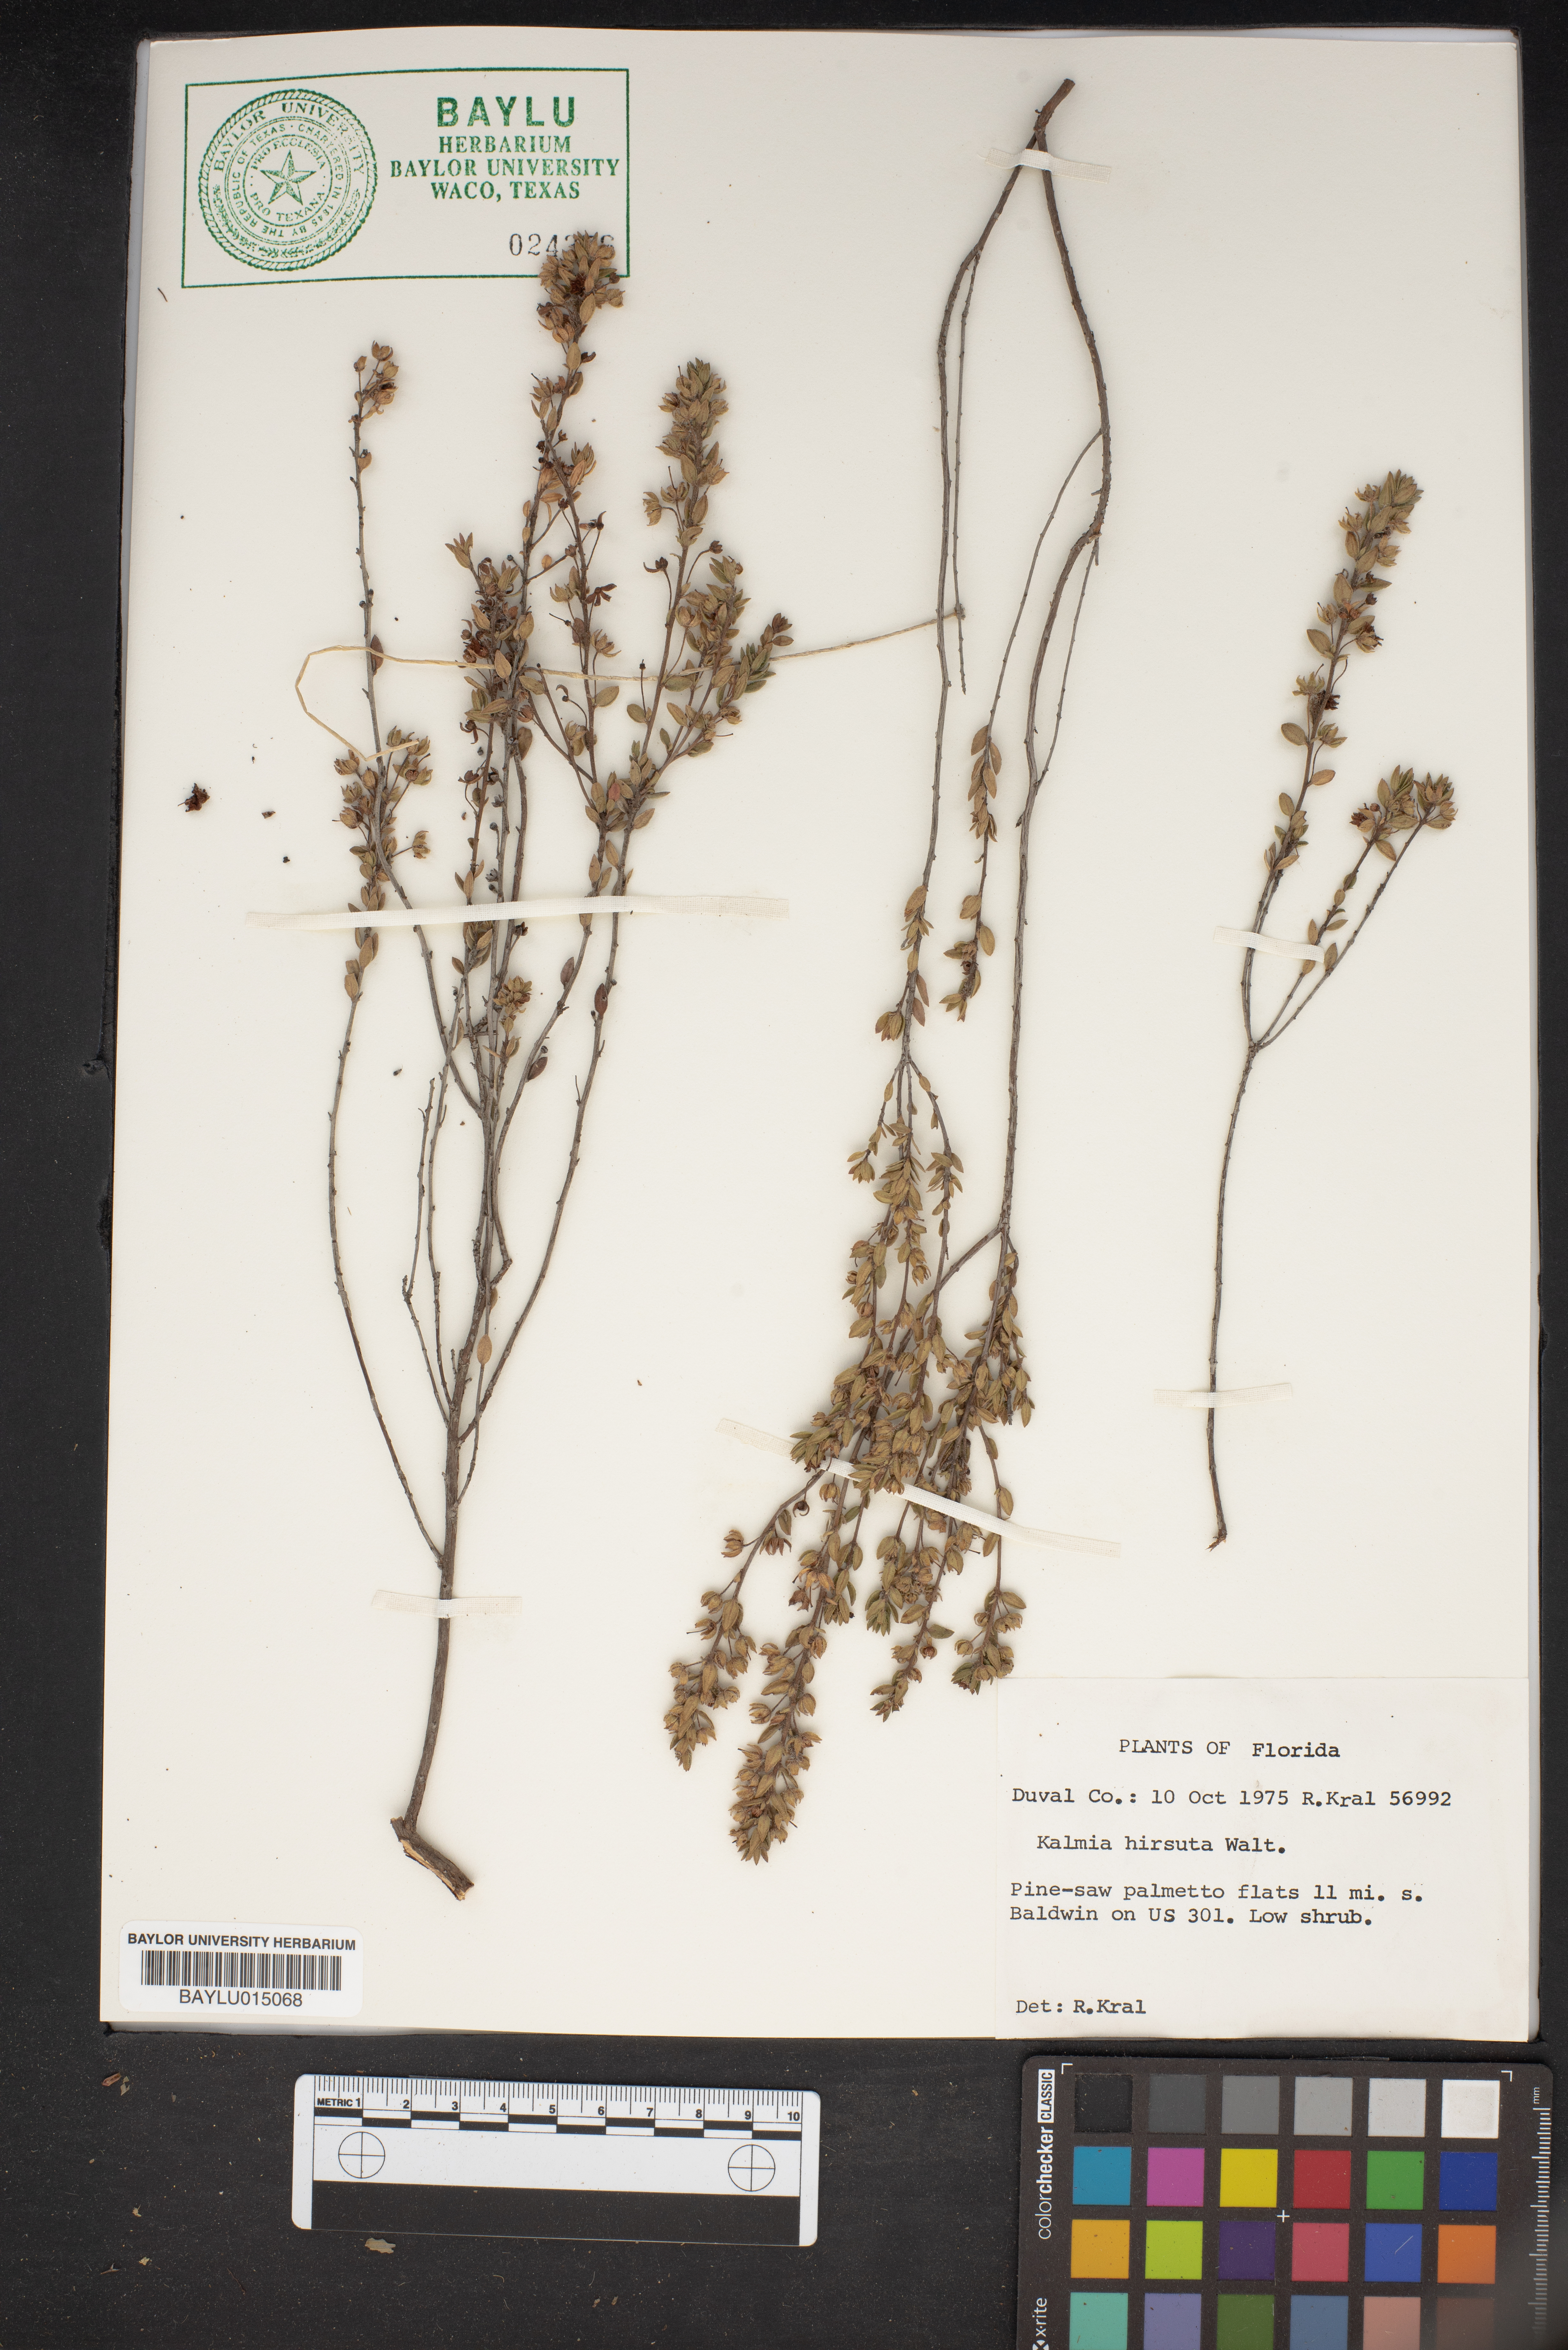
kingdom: Plantae
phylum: Tracheophyta
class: Magnoliopsida
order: Ericales
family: Ericaceae
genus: Kalmia
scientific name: Kalmia hirsuta
